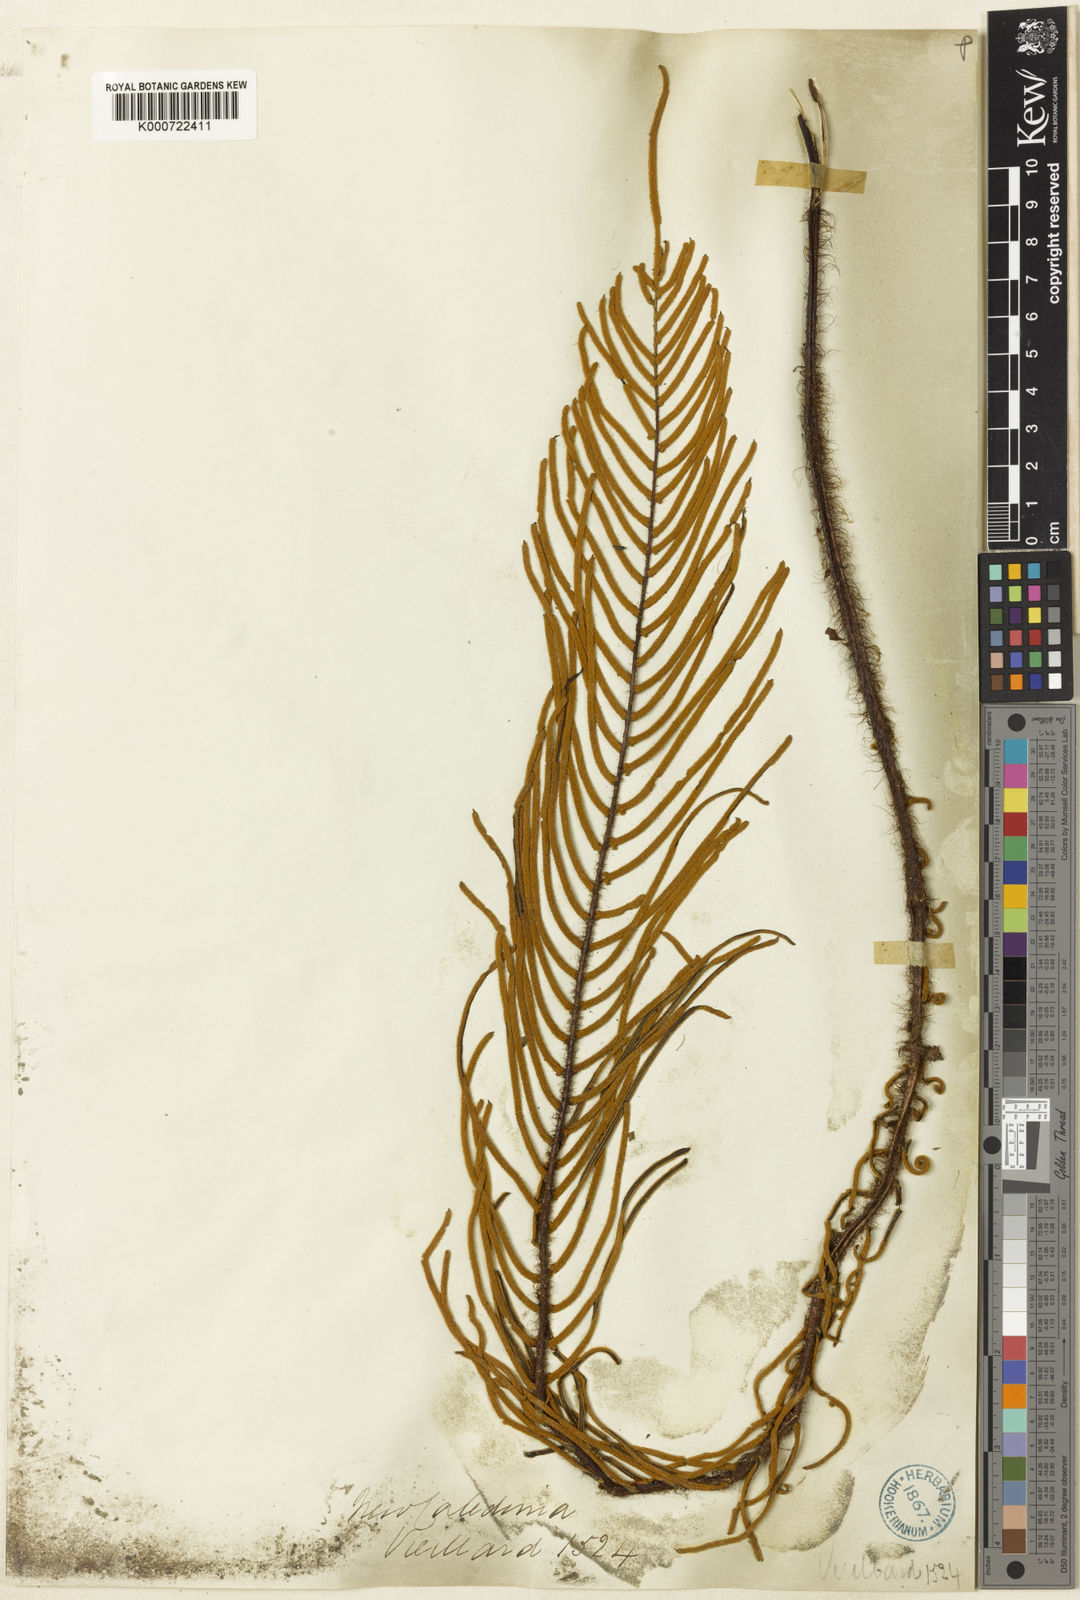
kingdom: Plantae
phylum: Tracheophyta
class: Polypodiopsida
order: Polypodiales
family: Blechnaceae
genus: Diploblechnum
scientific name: Diploblechnum lenormandii
